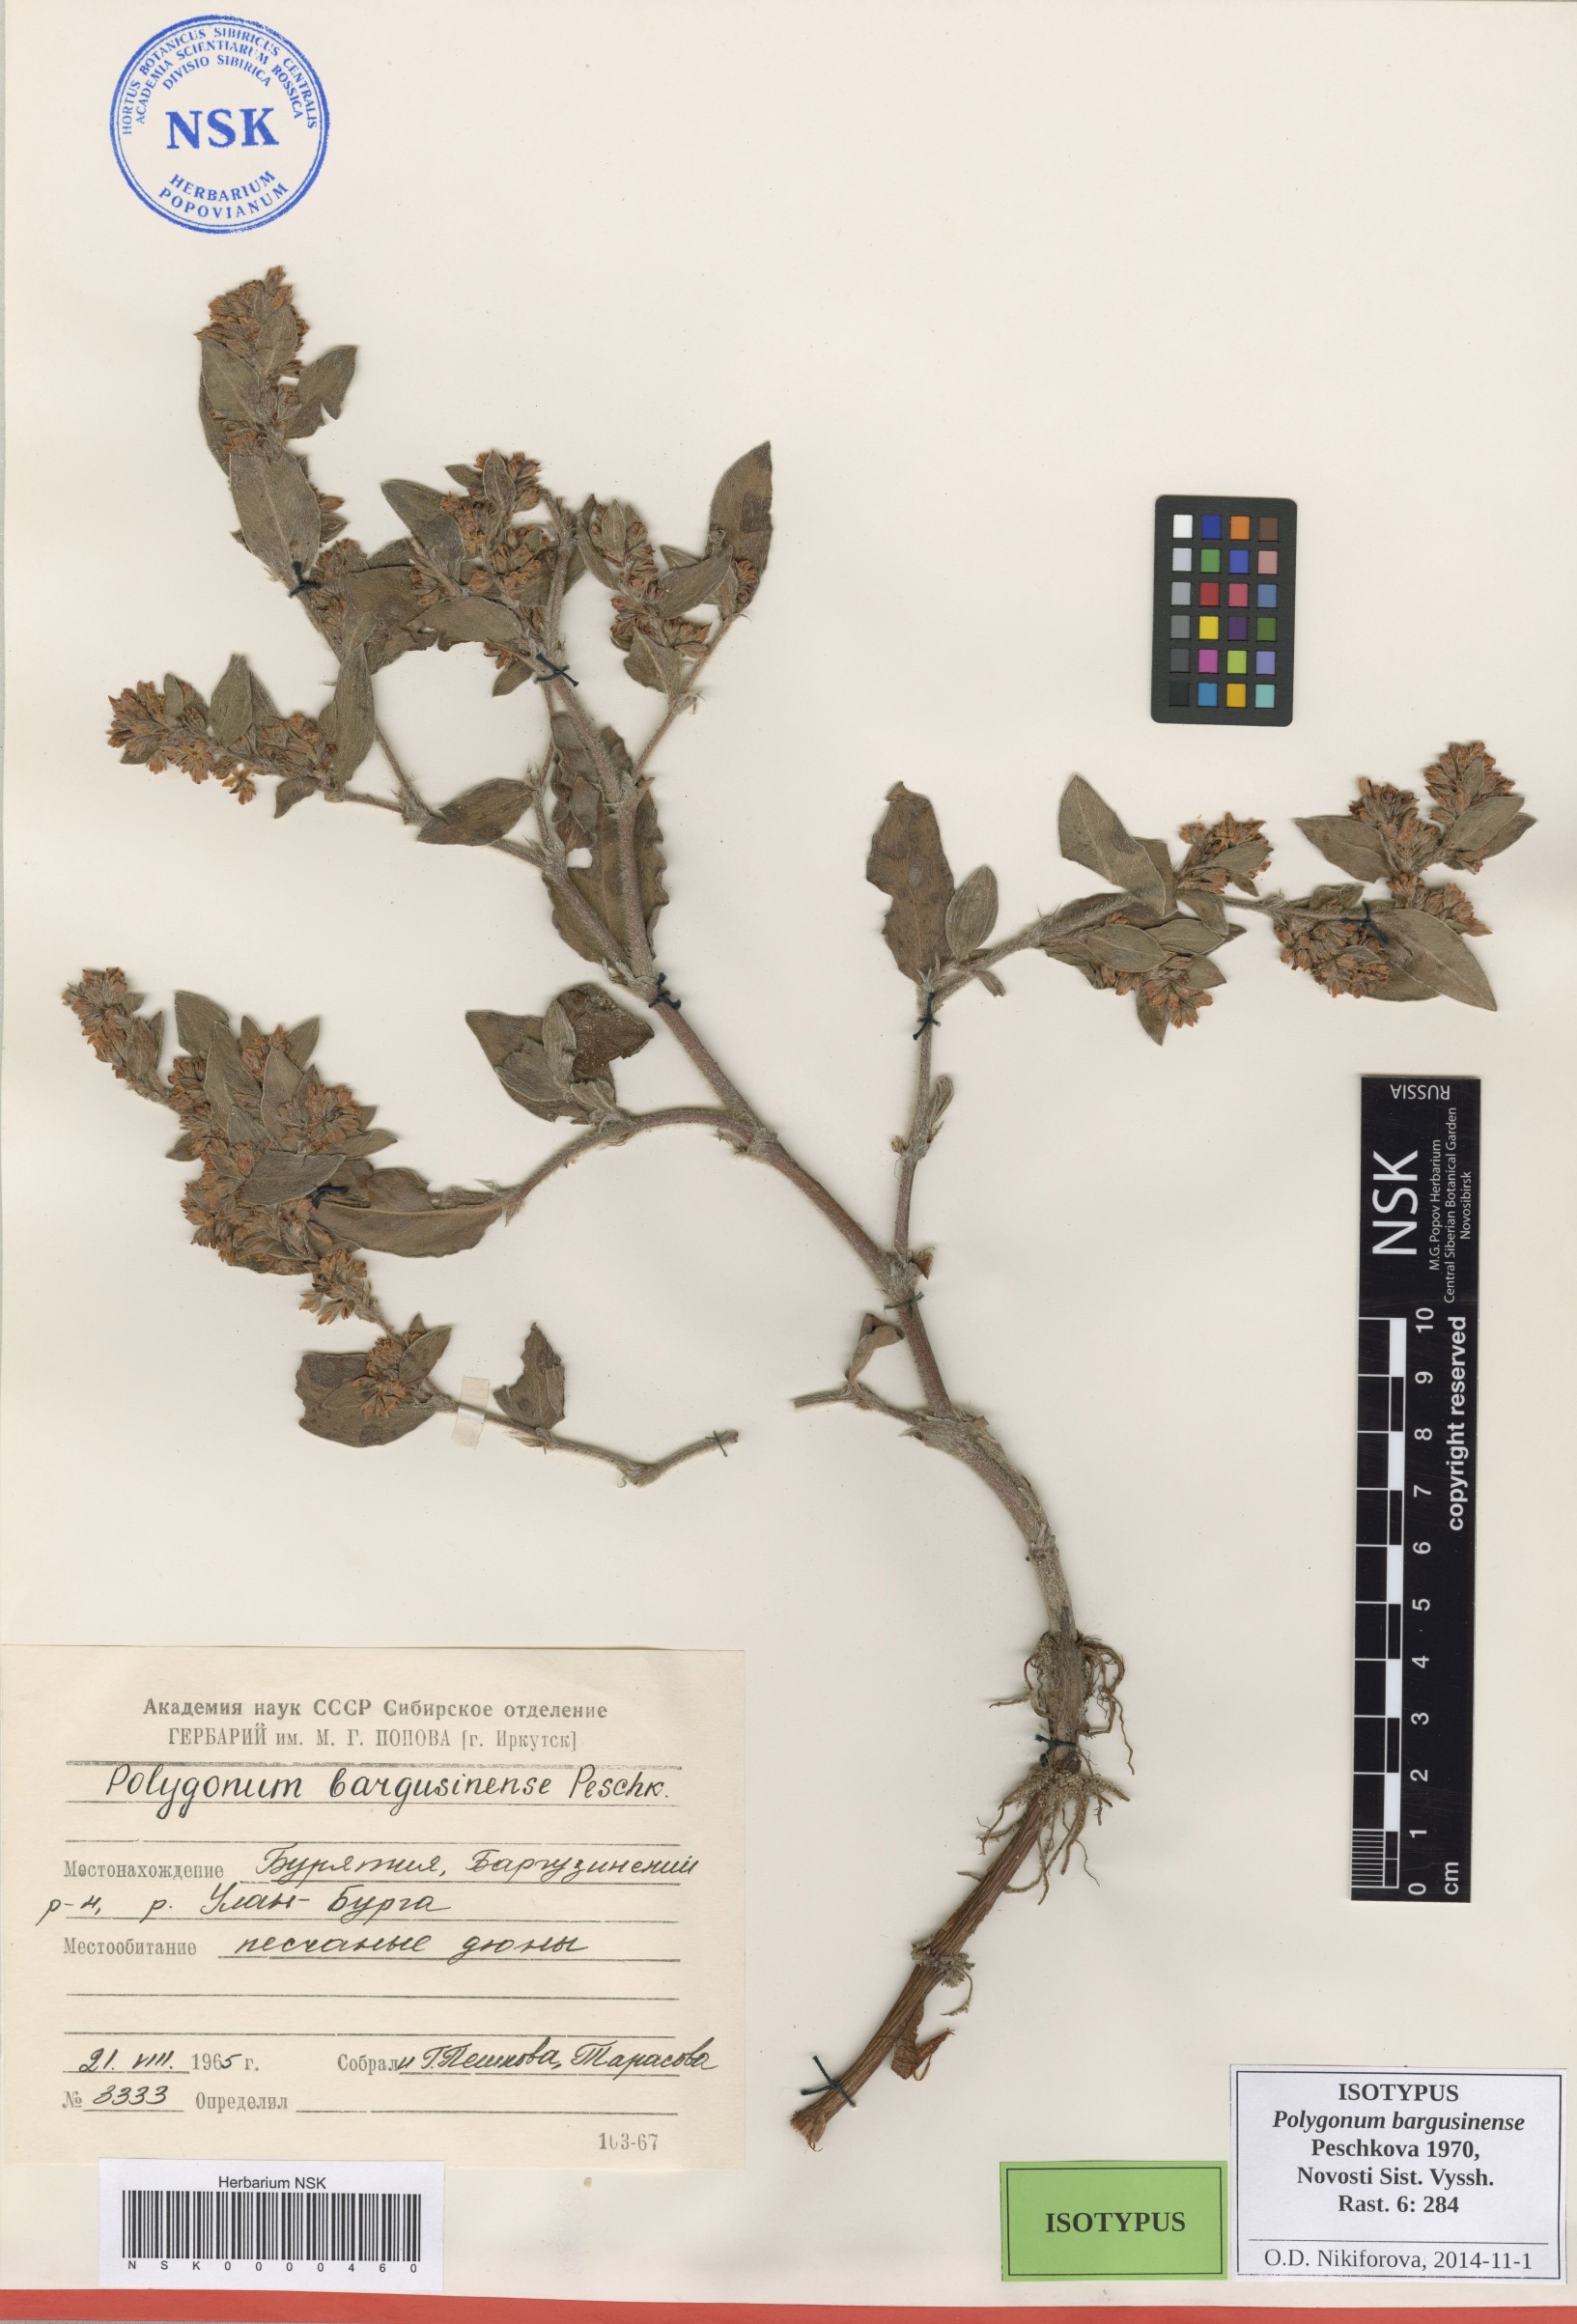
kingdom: Plantae
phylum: Tracheophyta
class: Magnoliopsida
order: Caryophyllales
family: Polygonaceae
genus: Koenigia
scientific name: Koenigia bargusinensis
